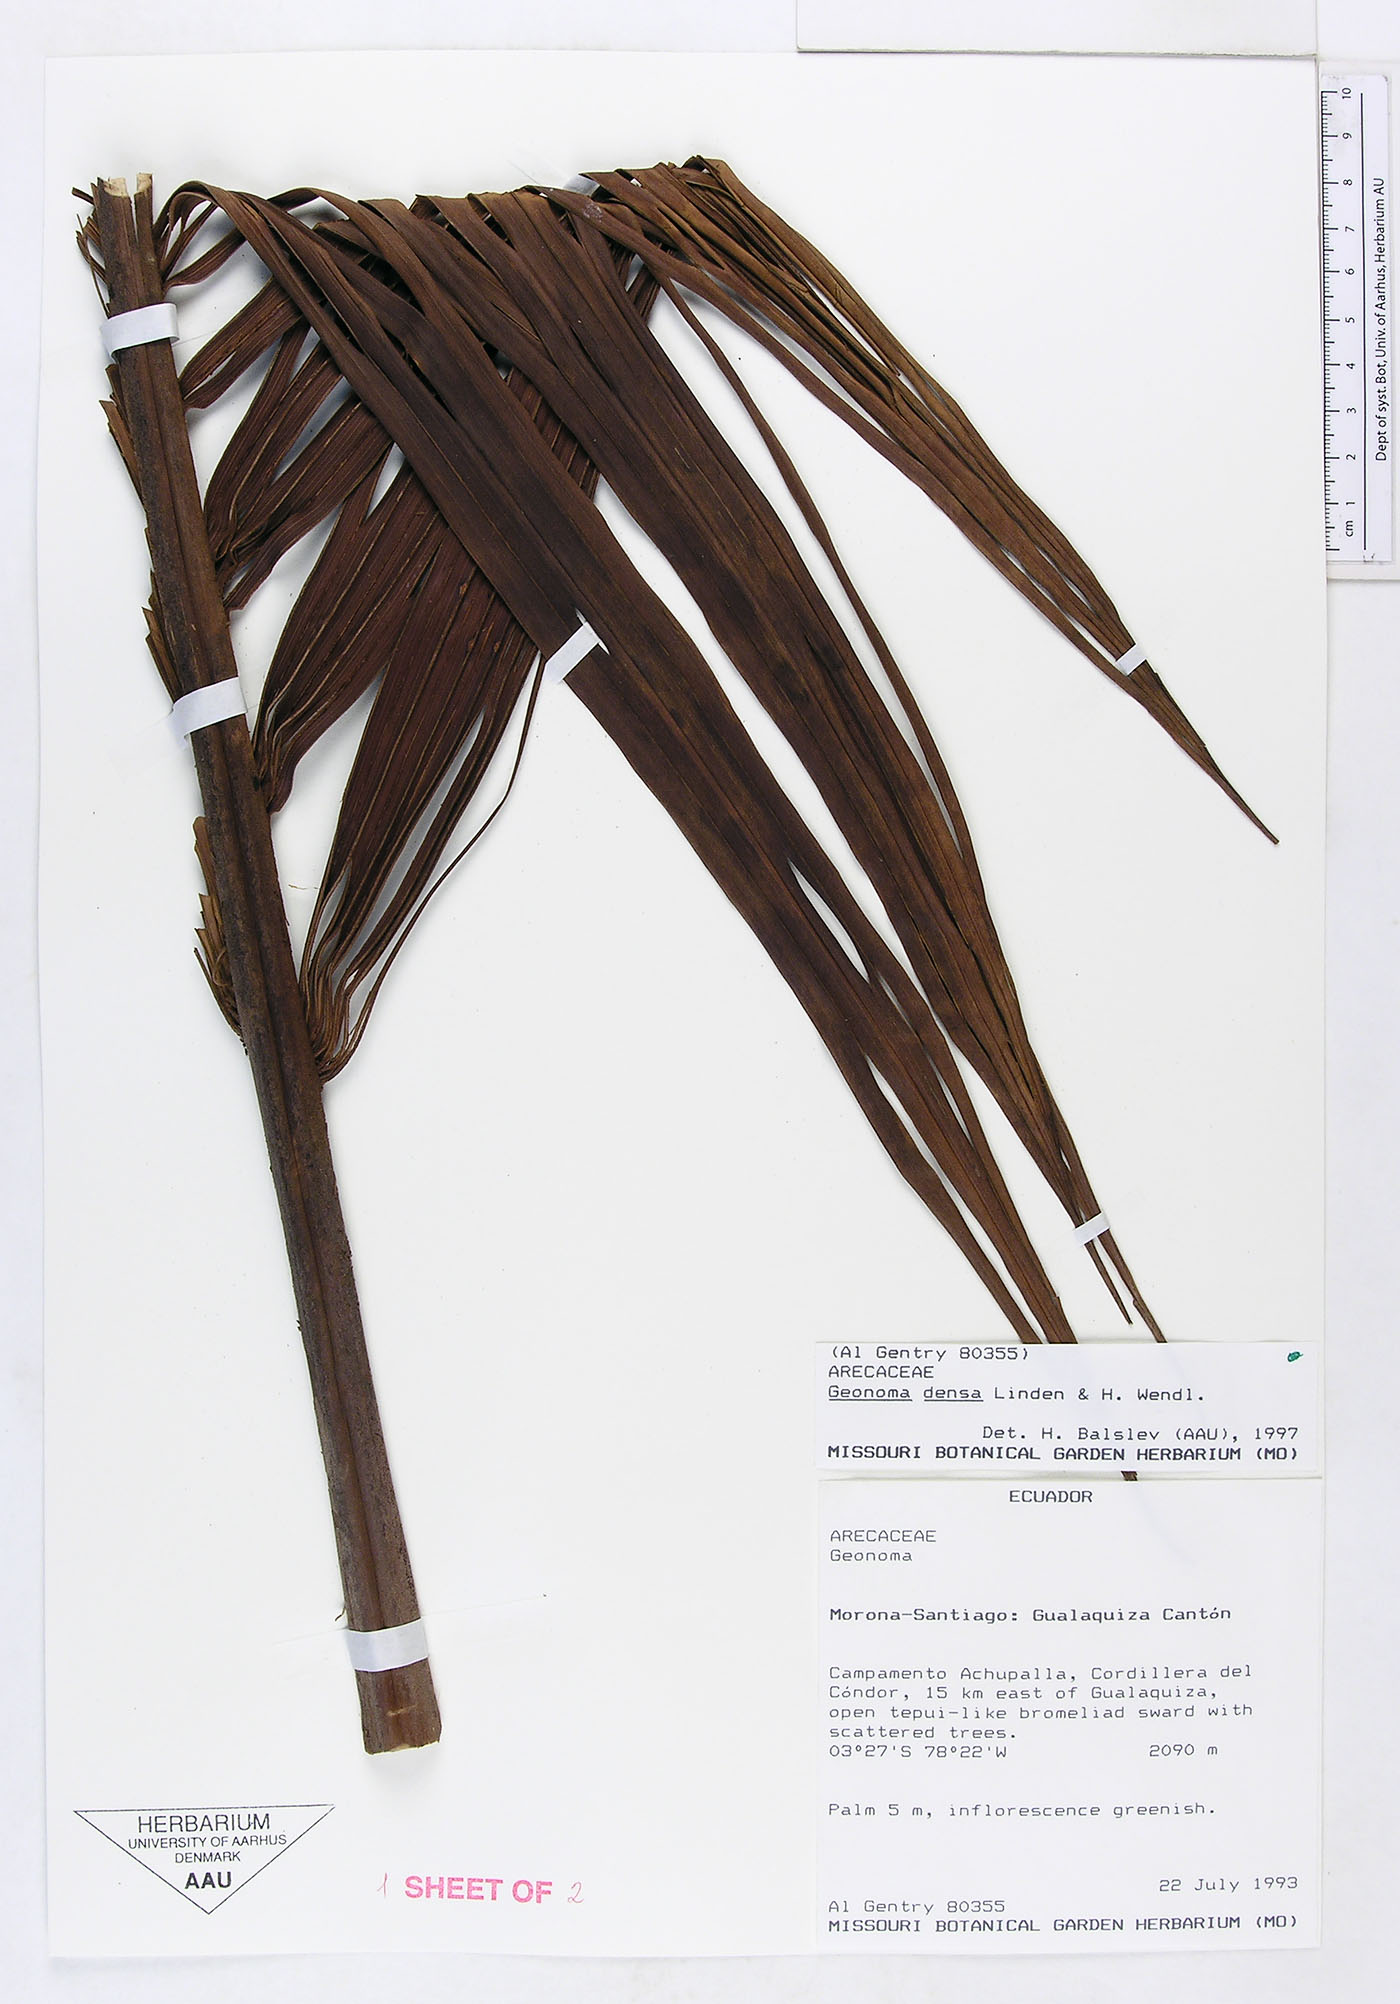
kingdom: Plantae
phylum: Tracheophyta
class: Liliopsida
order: Arecales
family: Arecaceae
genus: Geonoma
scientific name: Geonoma undata
